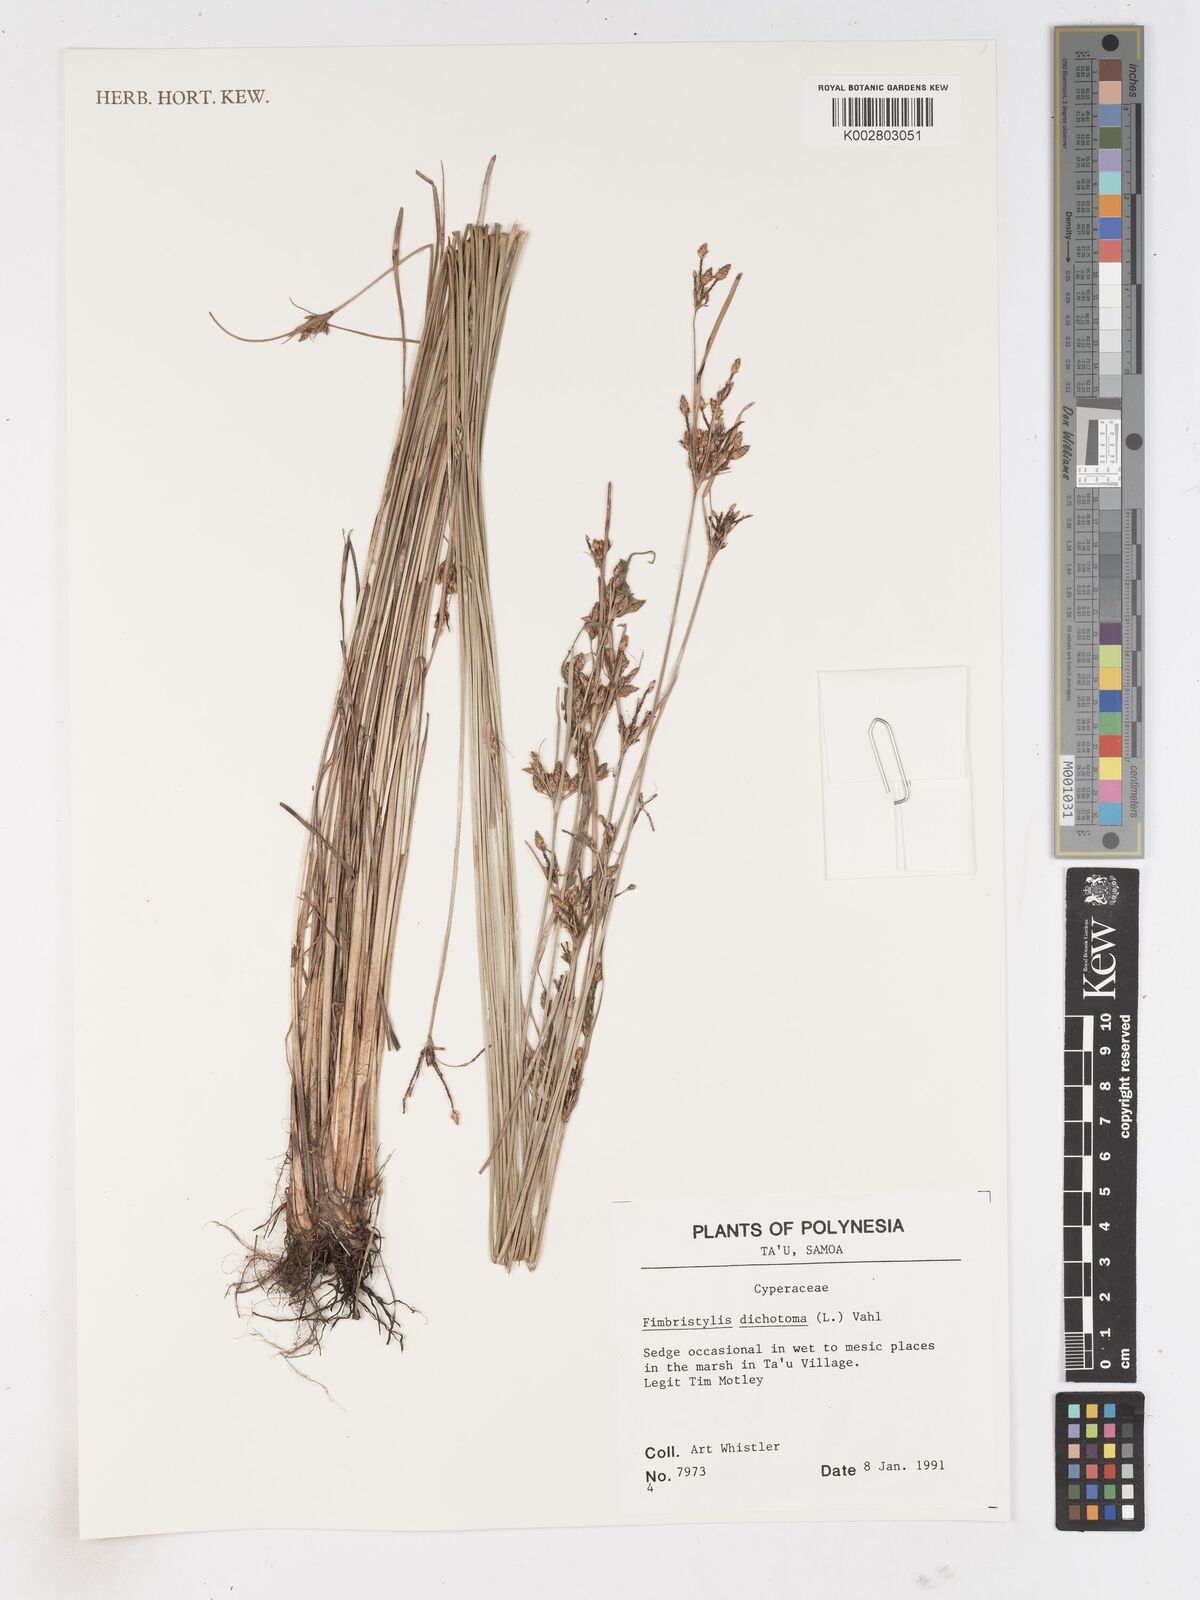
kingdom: Plantae
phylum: Tracheophyta
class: Liliopsida
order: Poales
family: Cyperaceae
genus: Fimbristylis
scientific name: Fimbristylis dichotoma
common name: Forked fimbry
